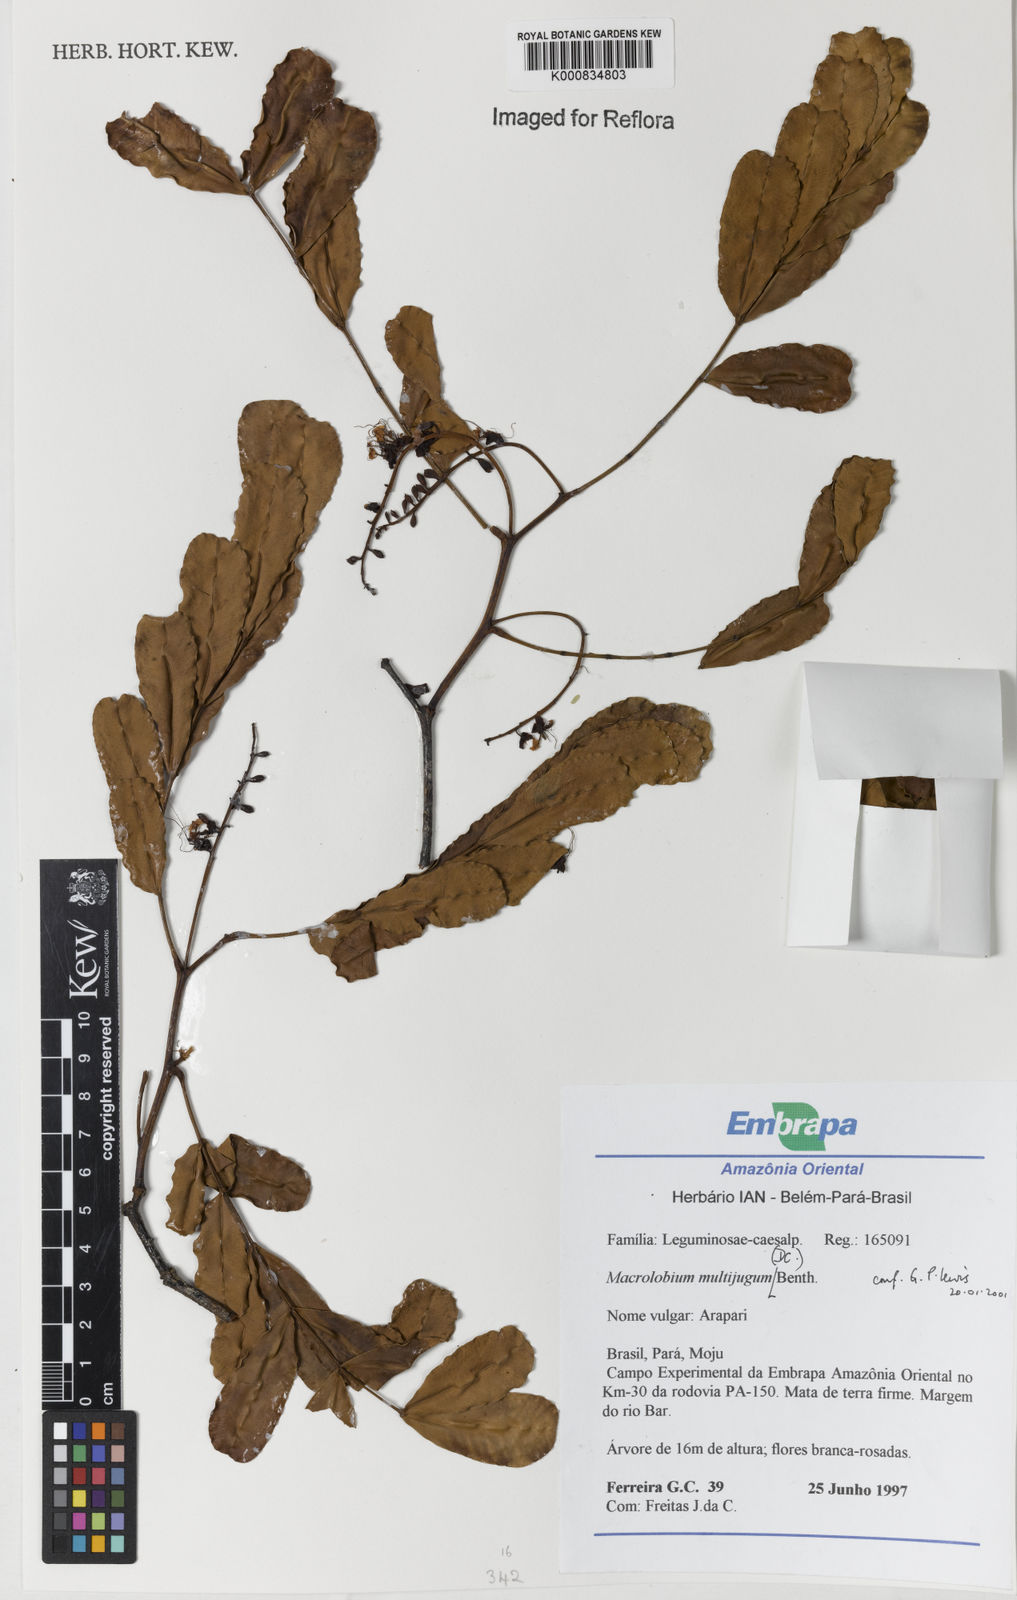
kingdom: Plantae
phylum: Tracheophyta
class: Magnoliopsida
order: Fabales
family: Fabaceae
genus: Macrolobium
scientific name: Macrolobium multijugum
